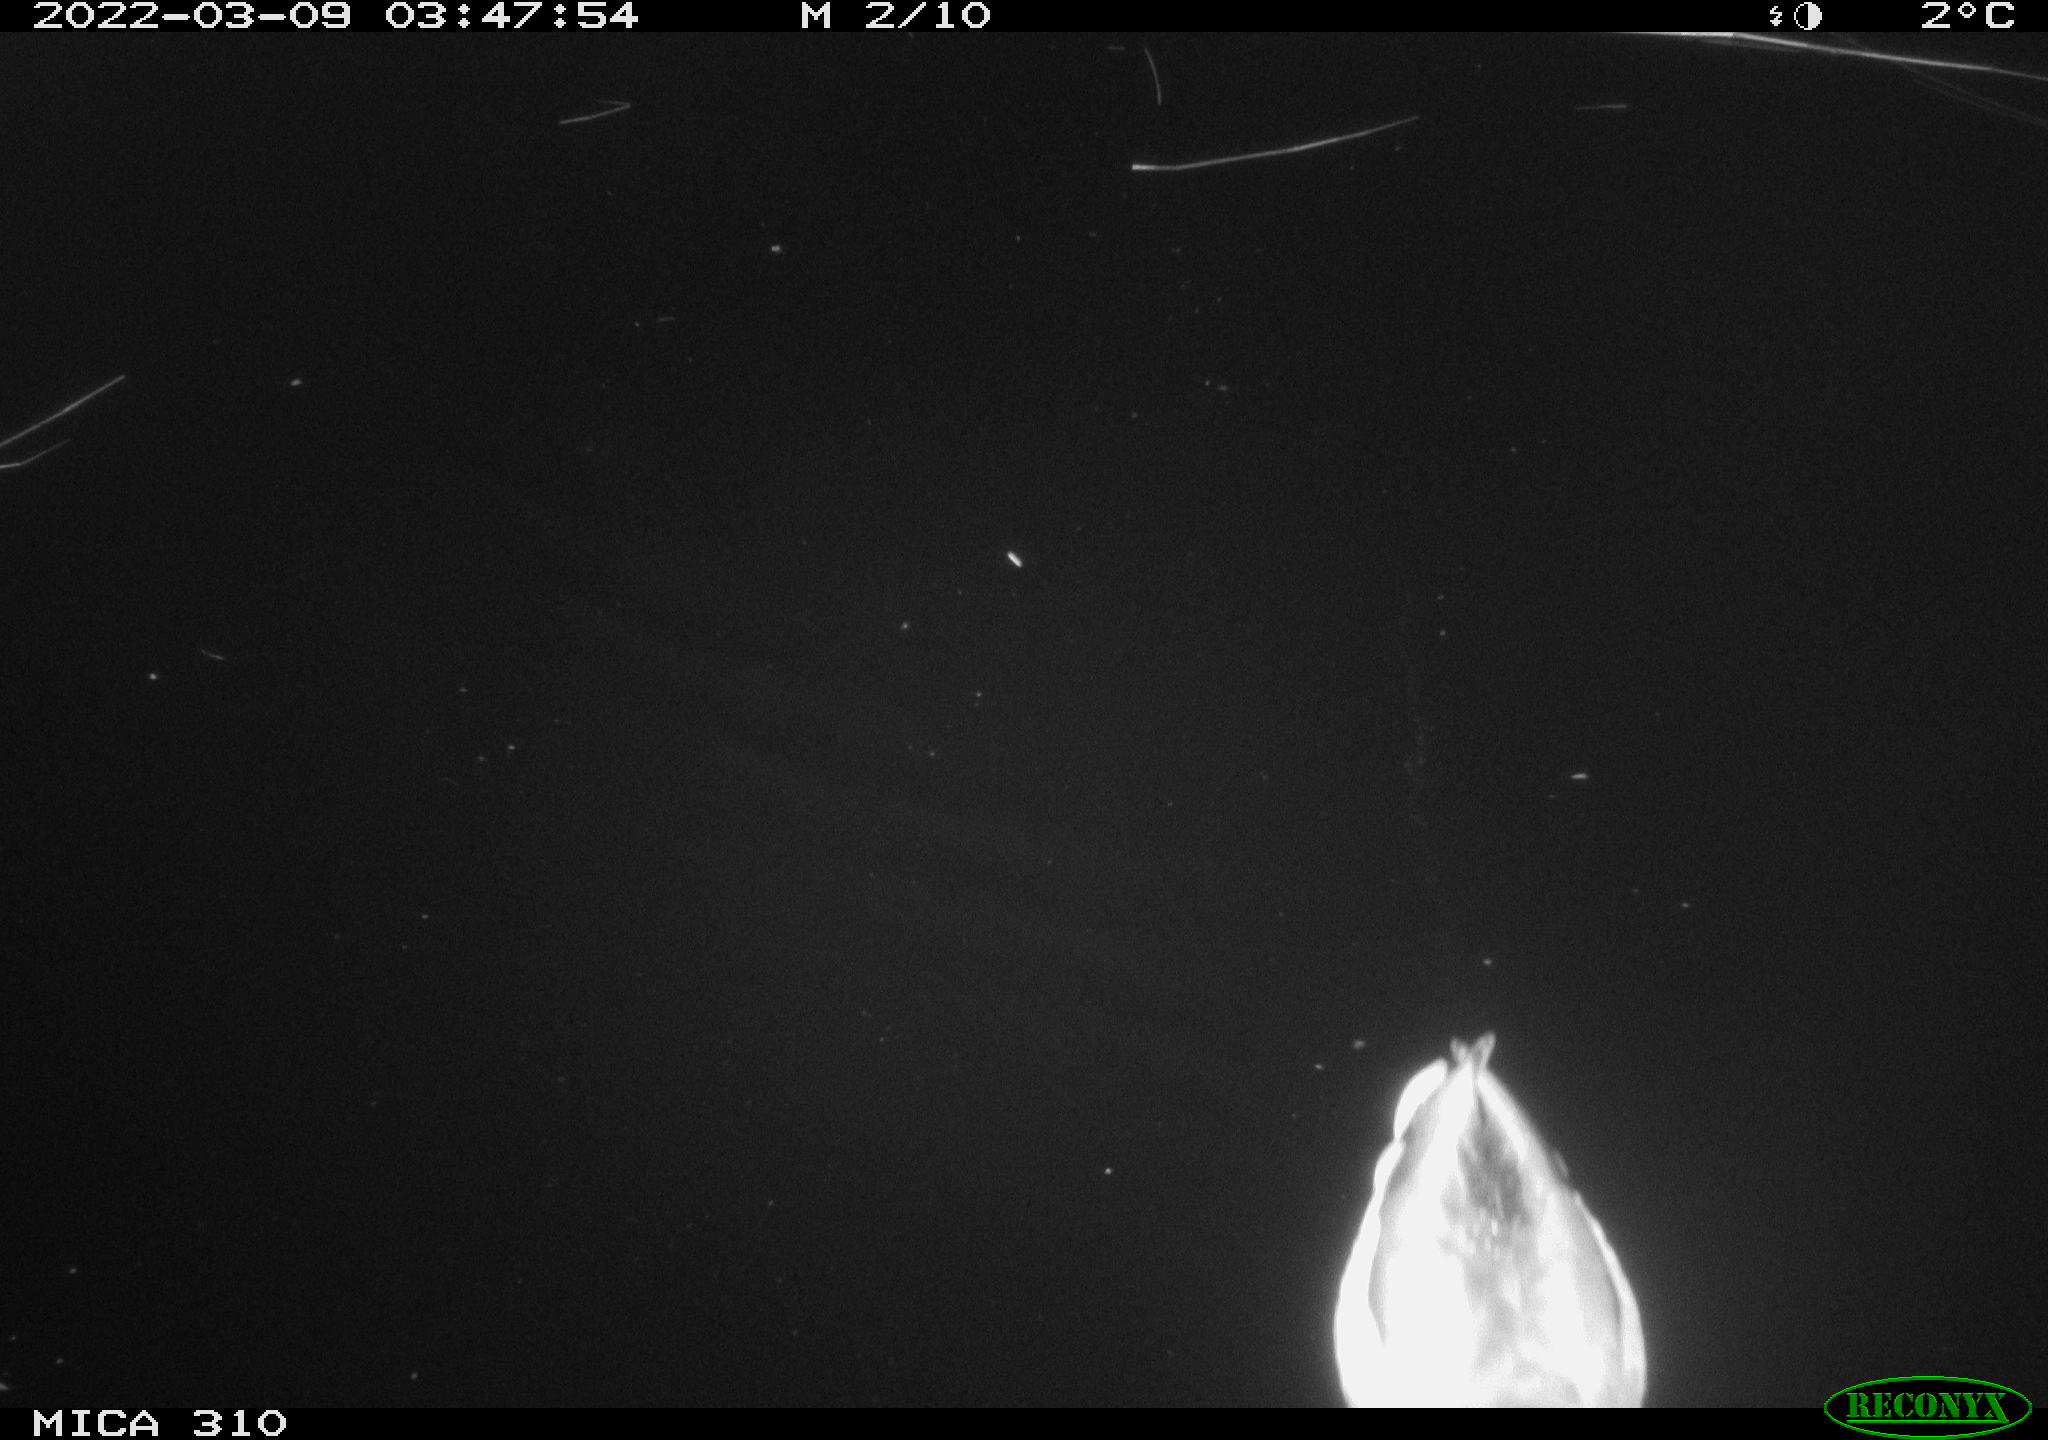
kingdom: Animalia
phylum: Chordata
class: Aves
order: Anseriformes
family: Anatidae
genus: Anas
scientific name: Anas platyrhynchos
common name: Mallard
